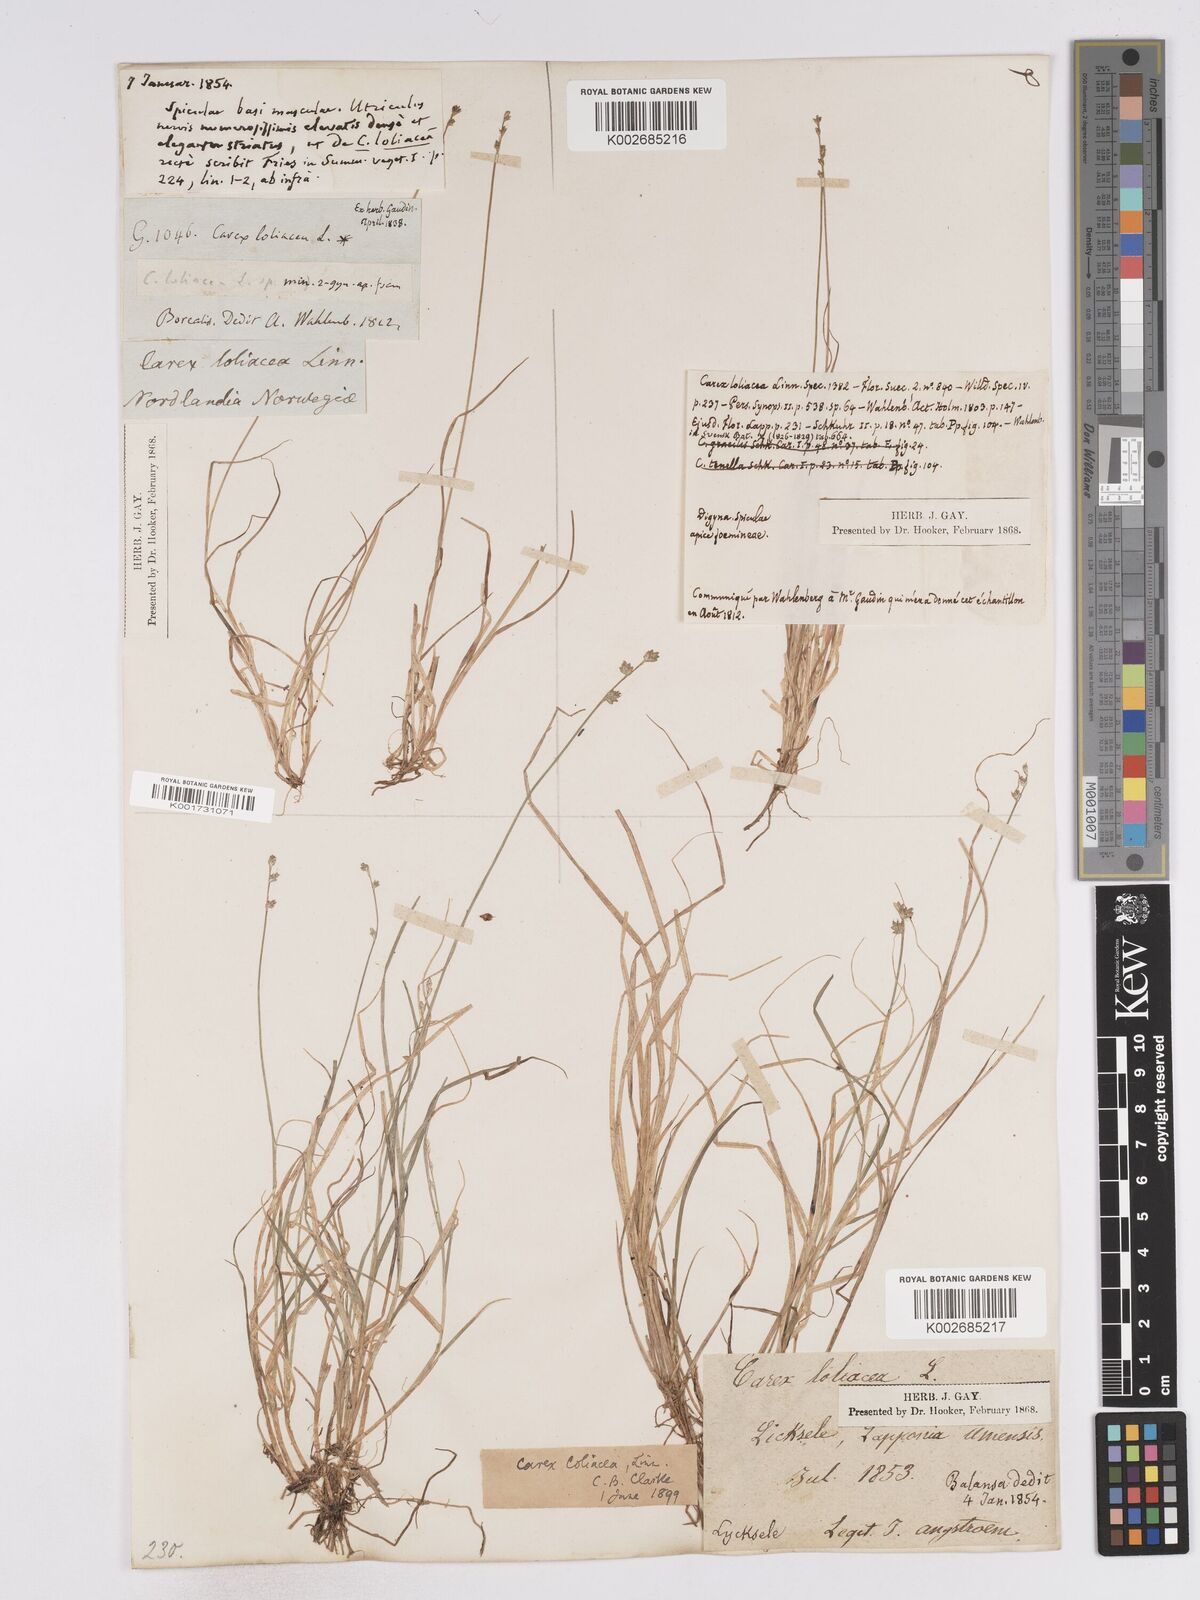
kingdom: Plantae
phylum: Tracheophyta
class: Liliopsida
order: Poales
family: Cyperaceae
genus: Carex
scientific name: Carex loliacea
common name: Ryegrass sedge
